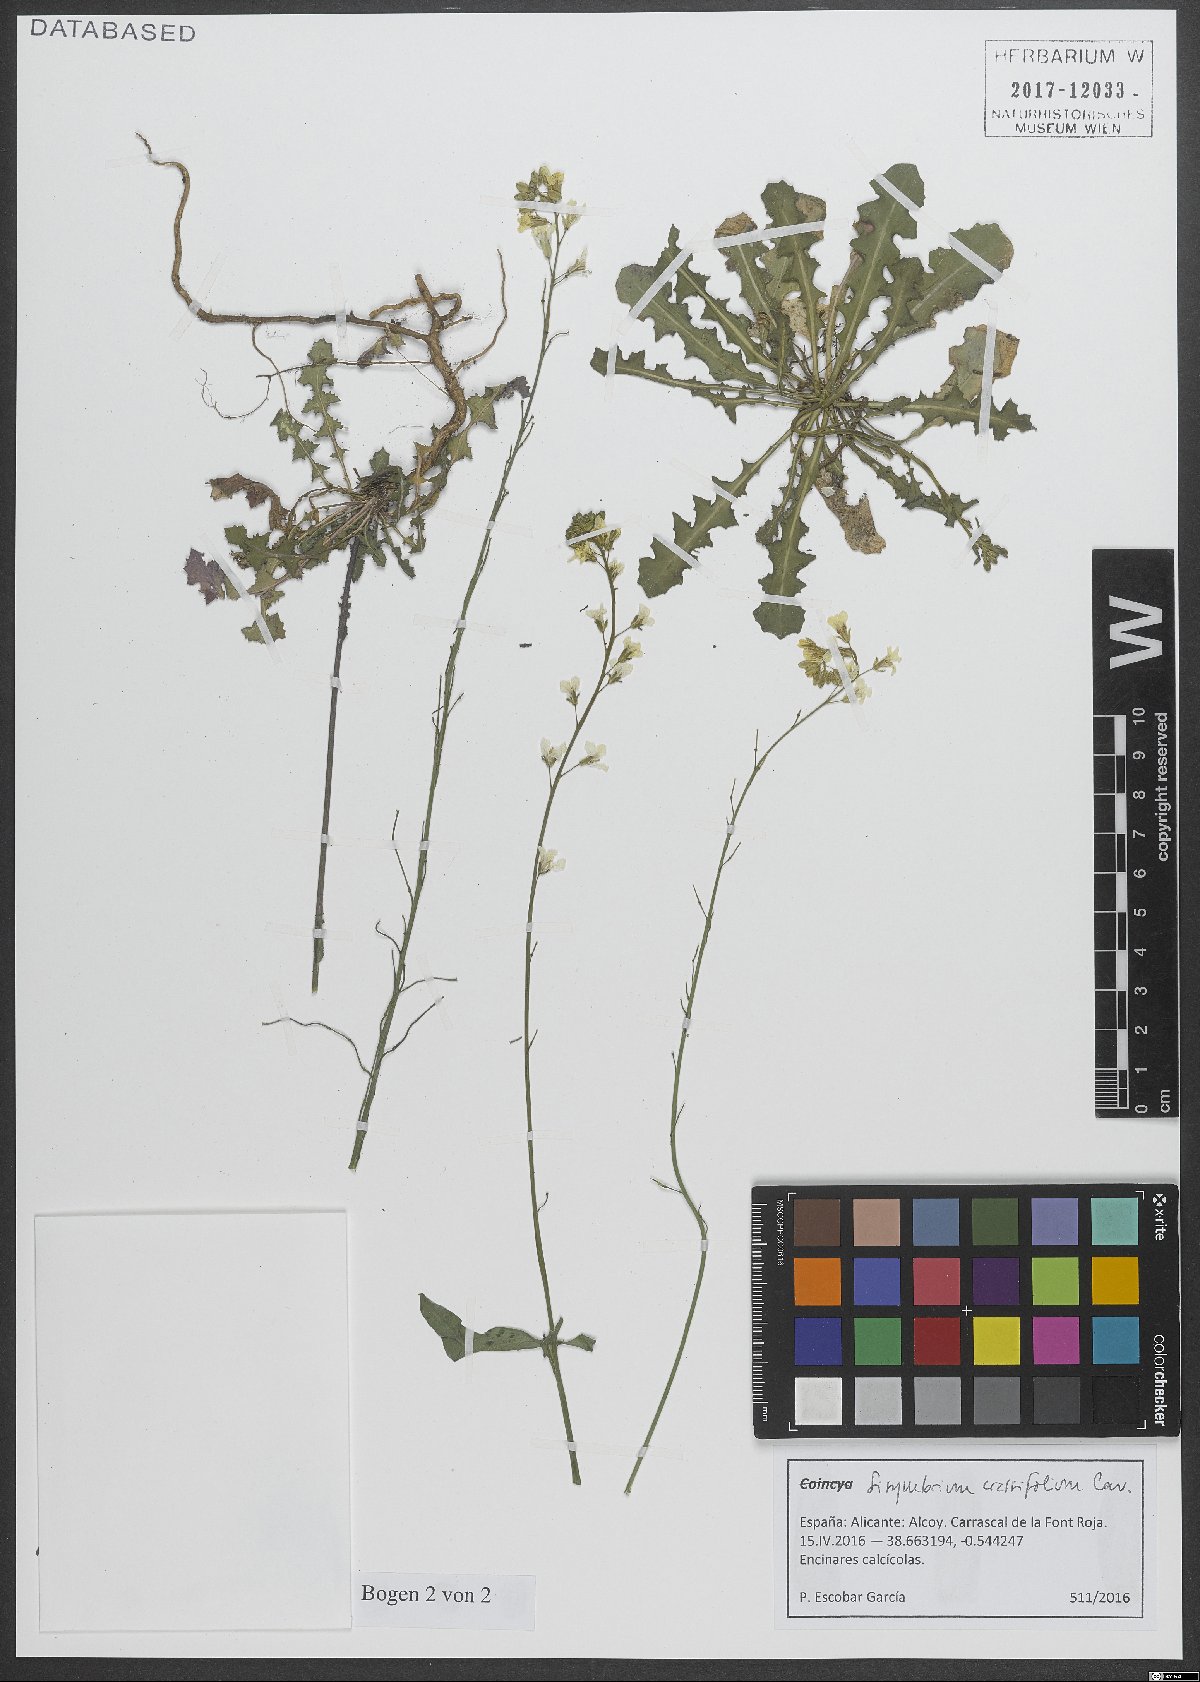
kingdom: Plantae
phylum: Tracheophyta
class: Magnoliopsida
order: Brassicales
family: Brassicaceae
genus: Sisymbrium
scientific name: Sisymbrium crassifolium
